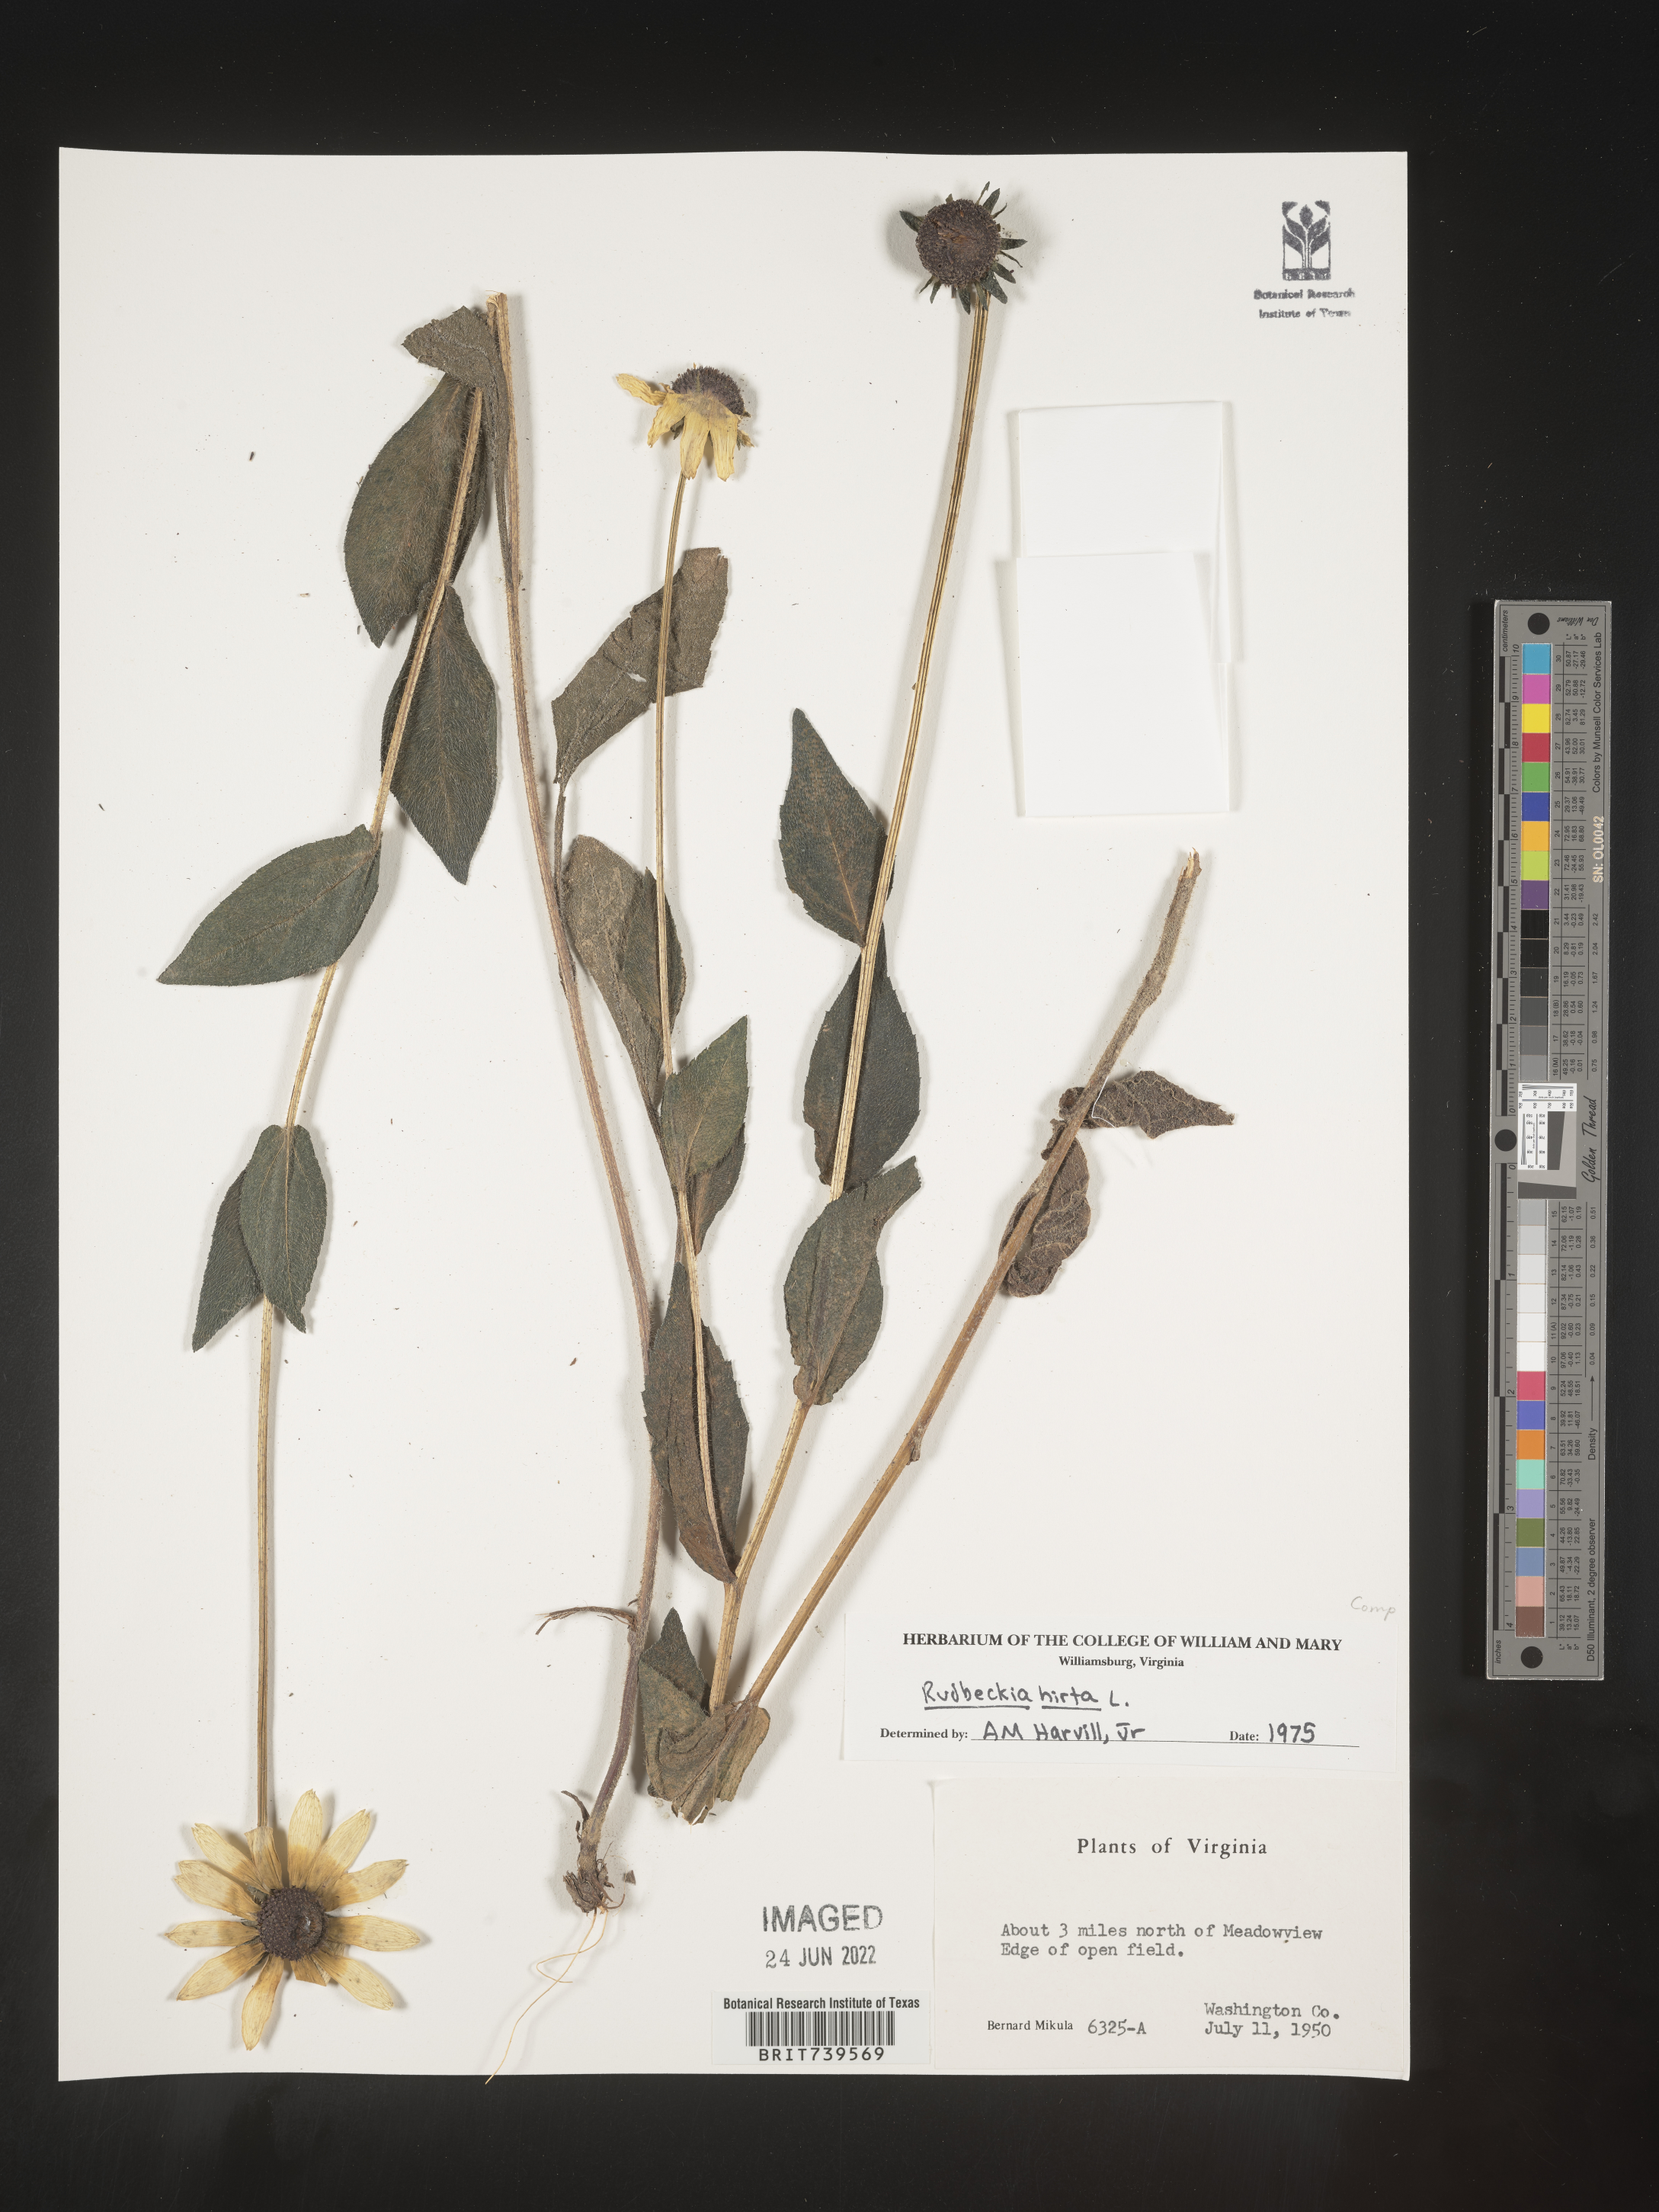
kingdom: Plantae
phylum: Tracheophyta
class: Magnoliopsida
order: Asterales
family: Asteraceae
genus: Rudbeckia
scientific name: Rudbeckia hirta
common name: Black-eyed-susan
